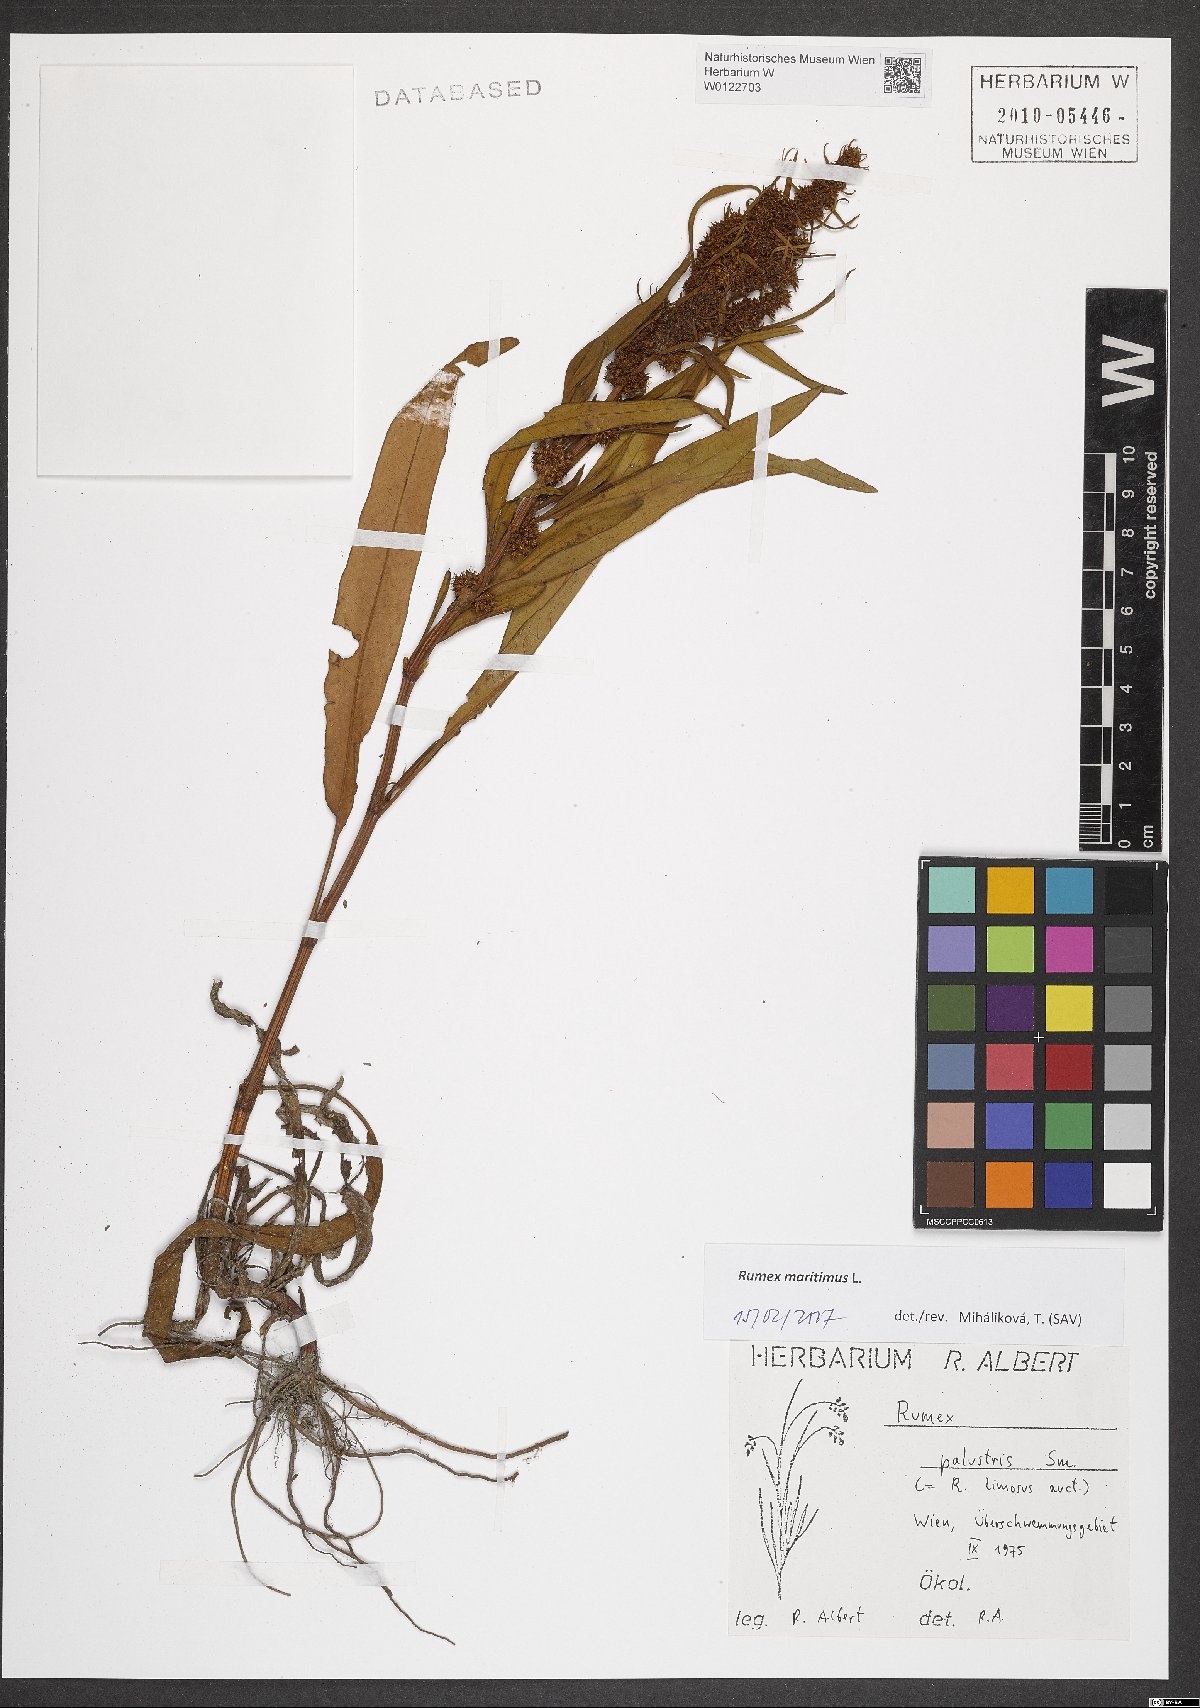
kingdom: Plantae
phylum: Tracheophyta
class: Magnoliopsida
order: Caryophyllales
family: Polygonaceae
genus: Rumex
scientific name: Rumex maritimus
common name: Golden dock
